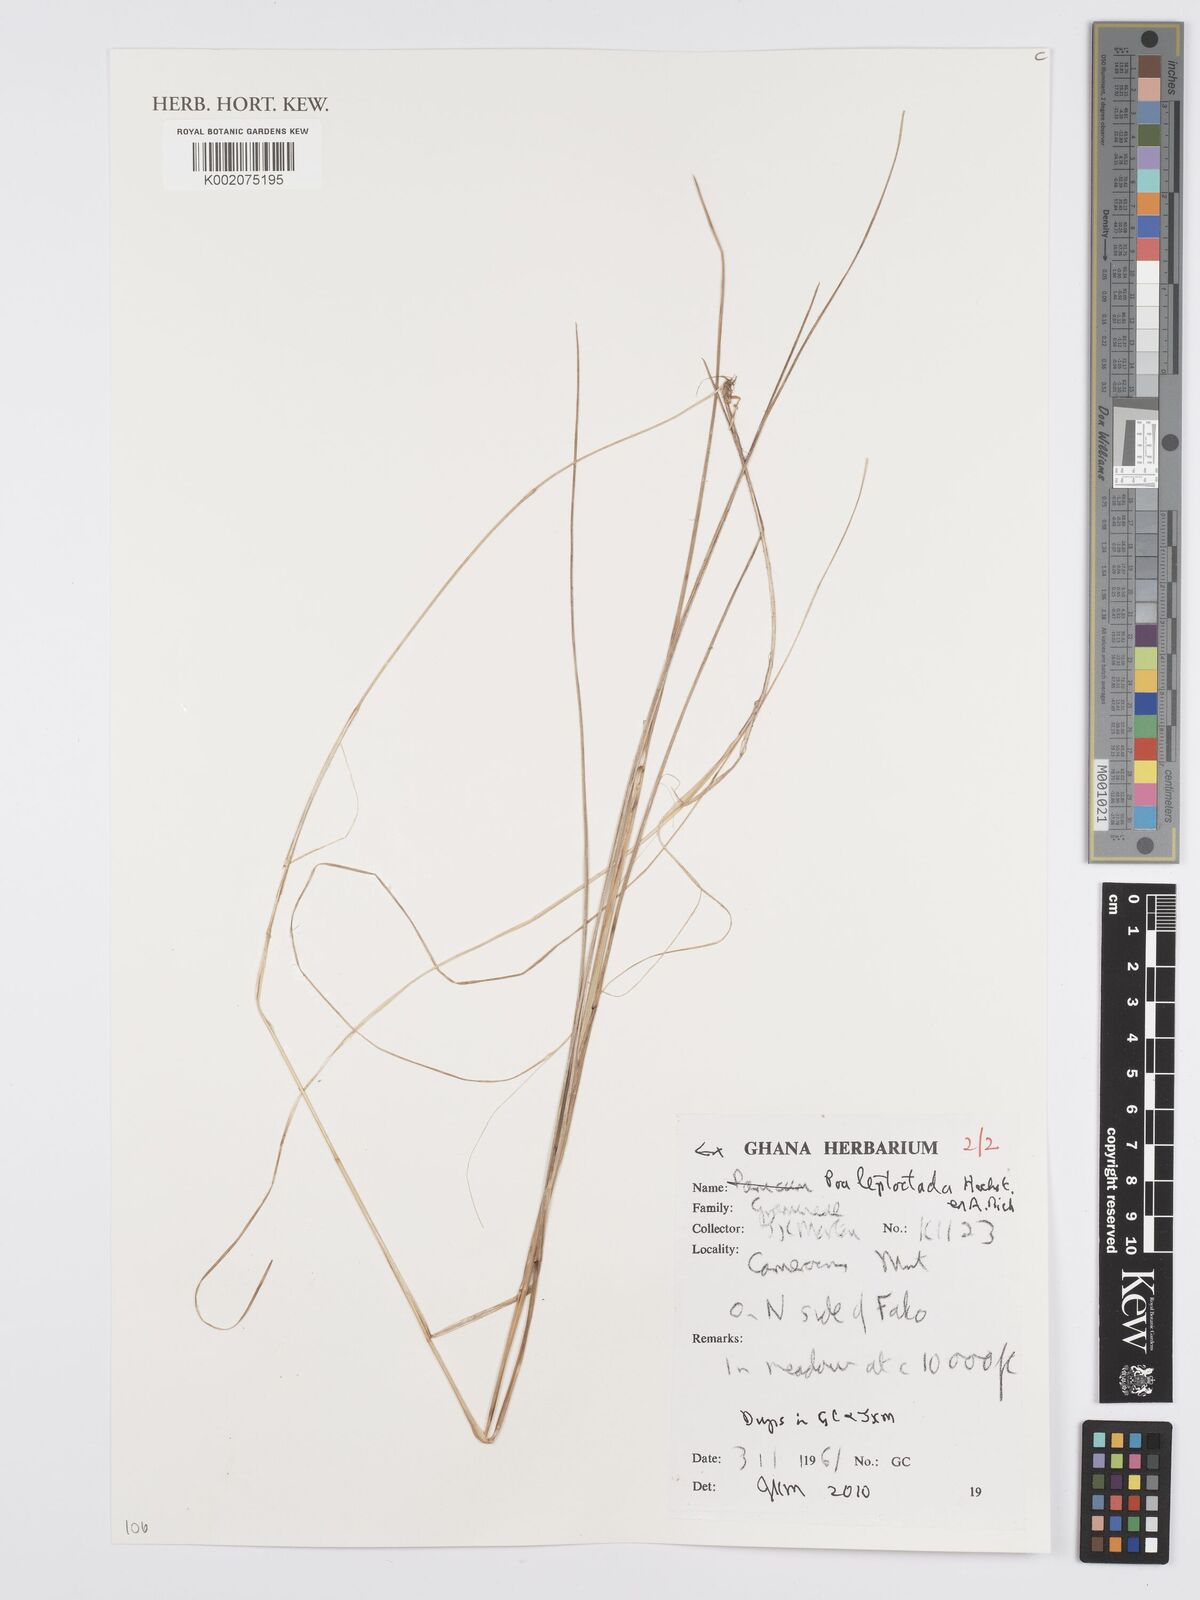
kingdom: Plantae
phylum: Tracheophyta
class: Liliopsida
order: Poales
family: Poaceae
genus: Poa
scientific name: Poa leptoclada
